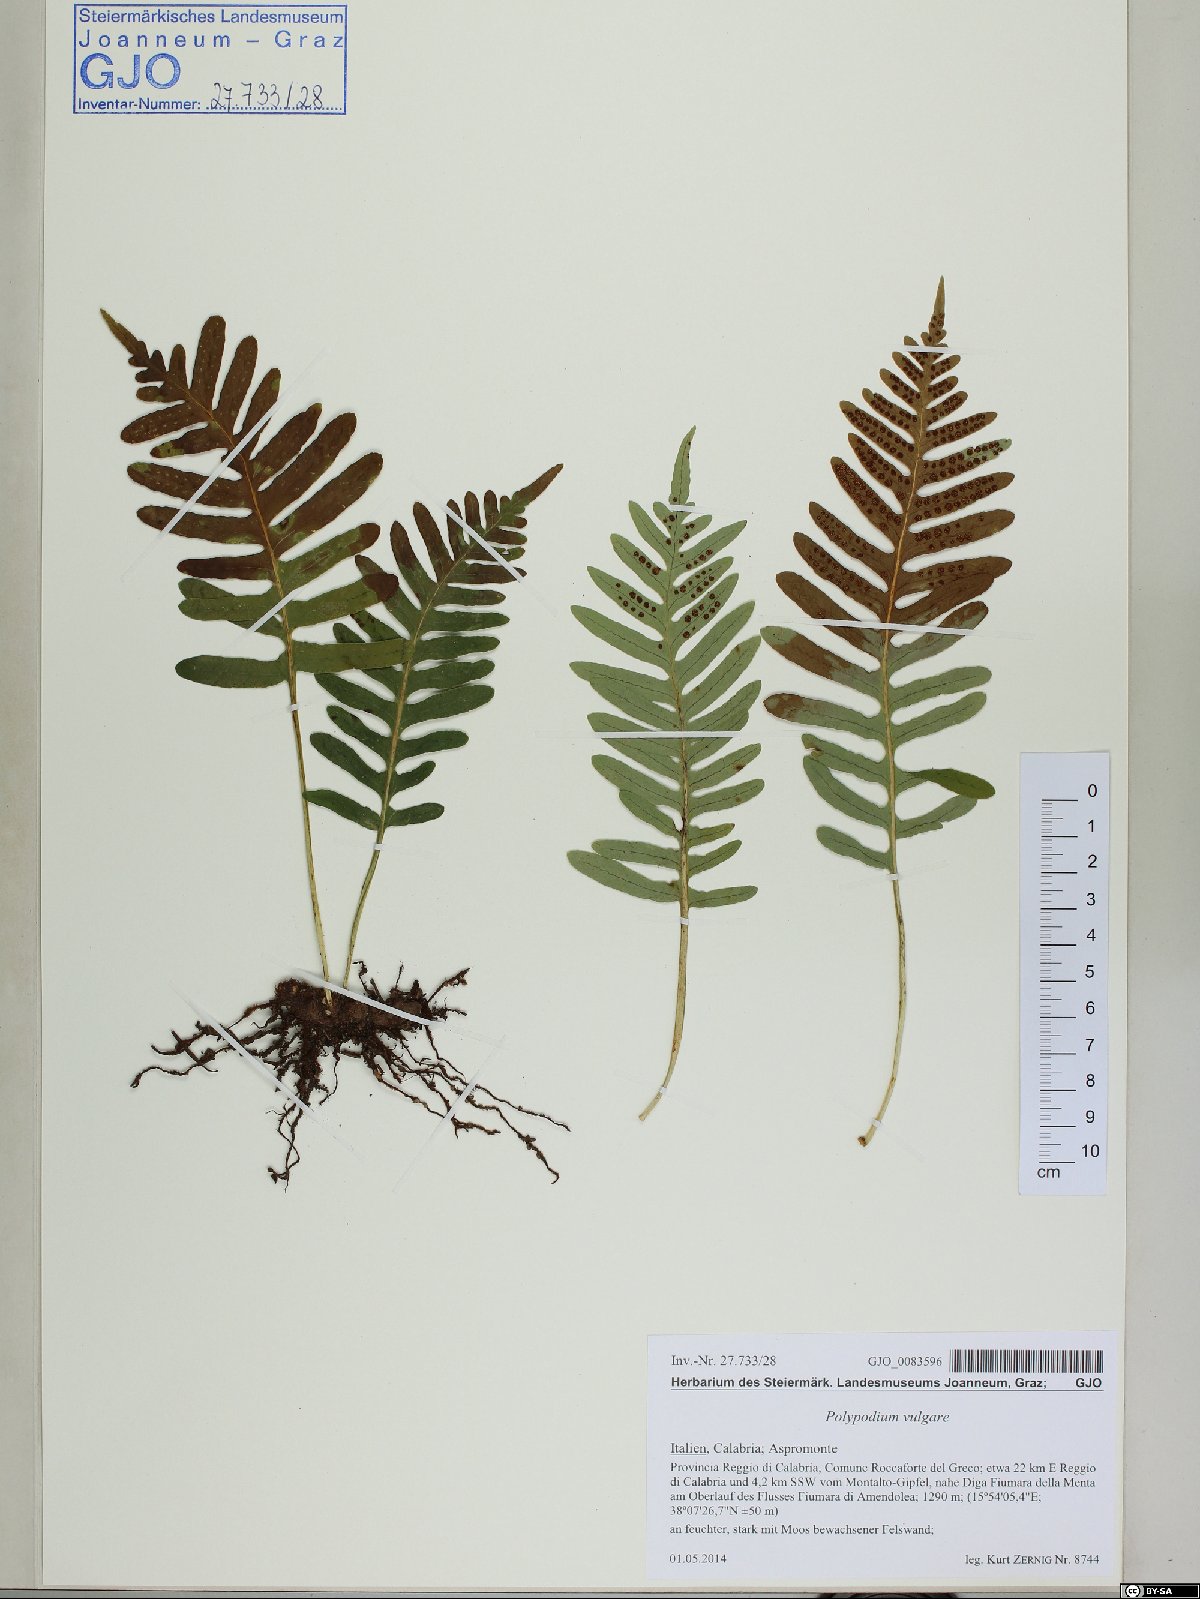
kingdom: Plantae
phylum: Tracheophyta
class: Polypodiopsida
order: Polypodiales
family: Polypodiaceae
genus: Polypodium
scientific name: Polypodium vulgare
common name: Common polypody
